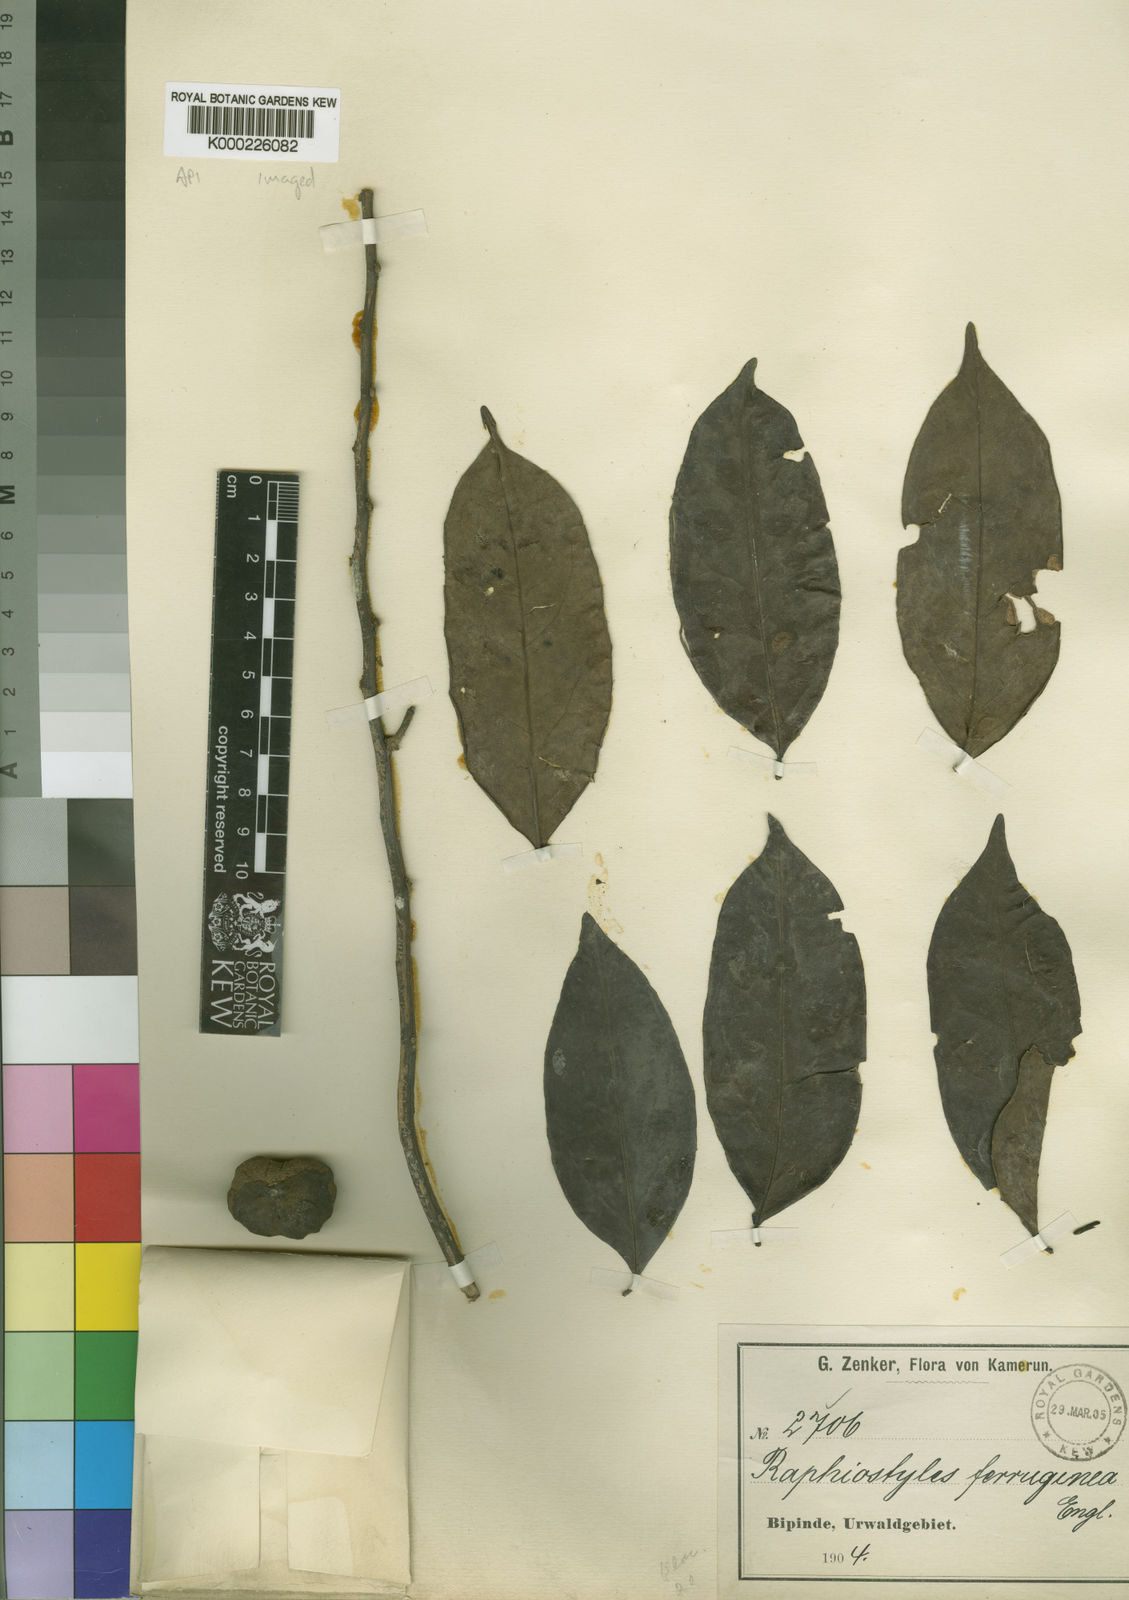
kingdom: Plantae
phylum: Tracheophyta
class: Magnoliopsida
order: Metteniusales
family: Metteniusaceae
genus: Rhaphiostylis
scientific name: Rhaphiostylis ferruginea
